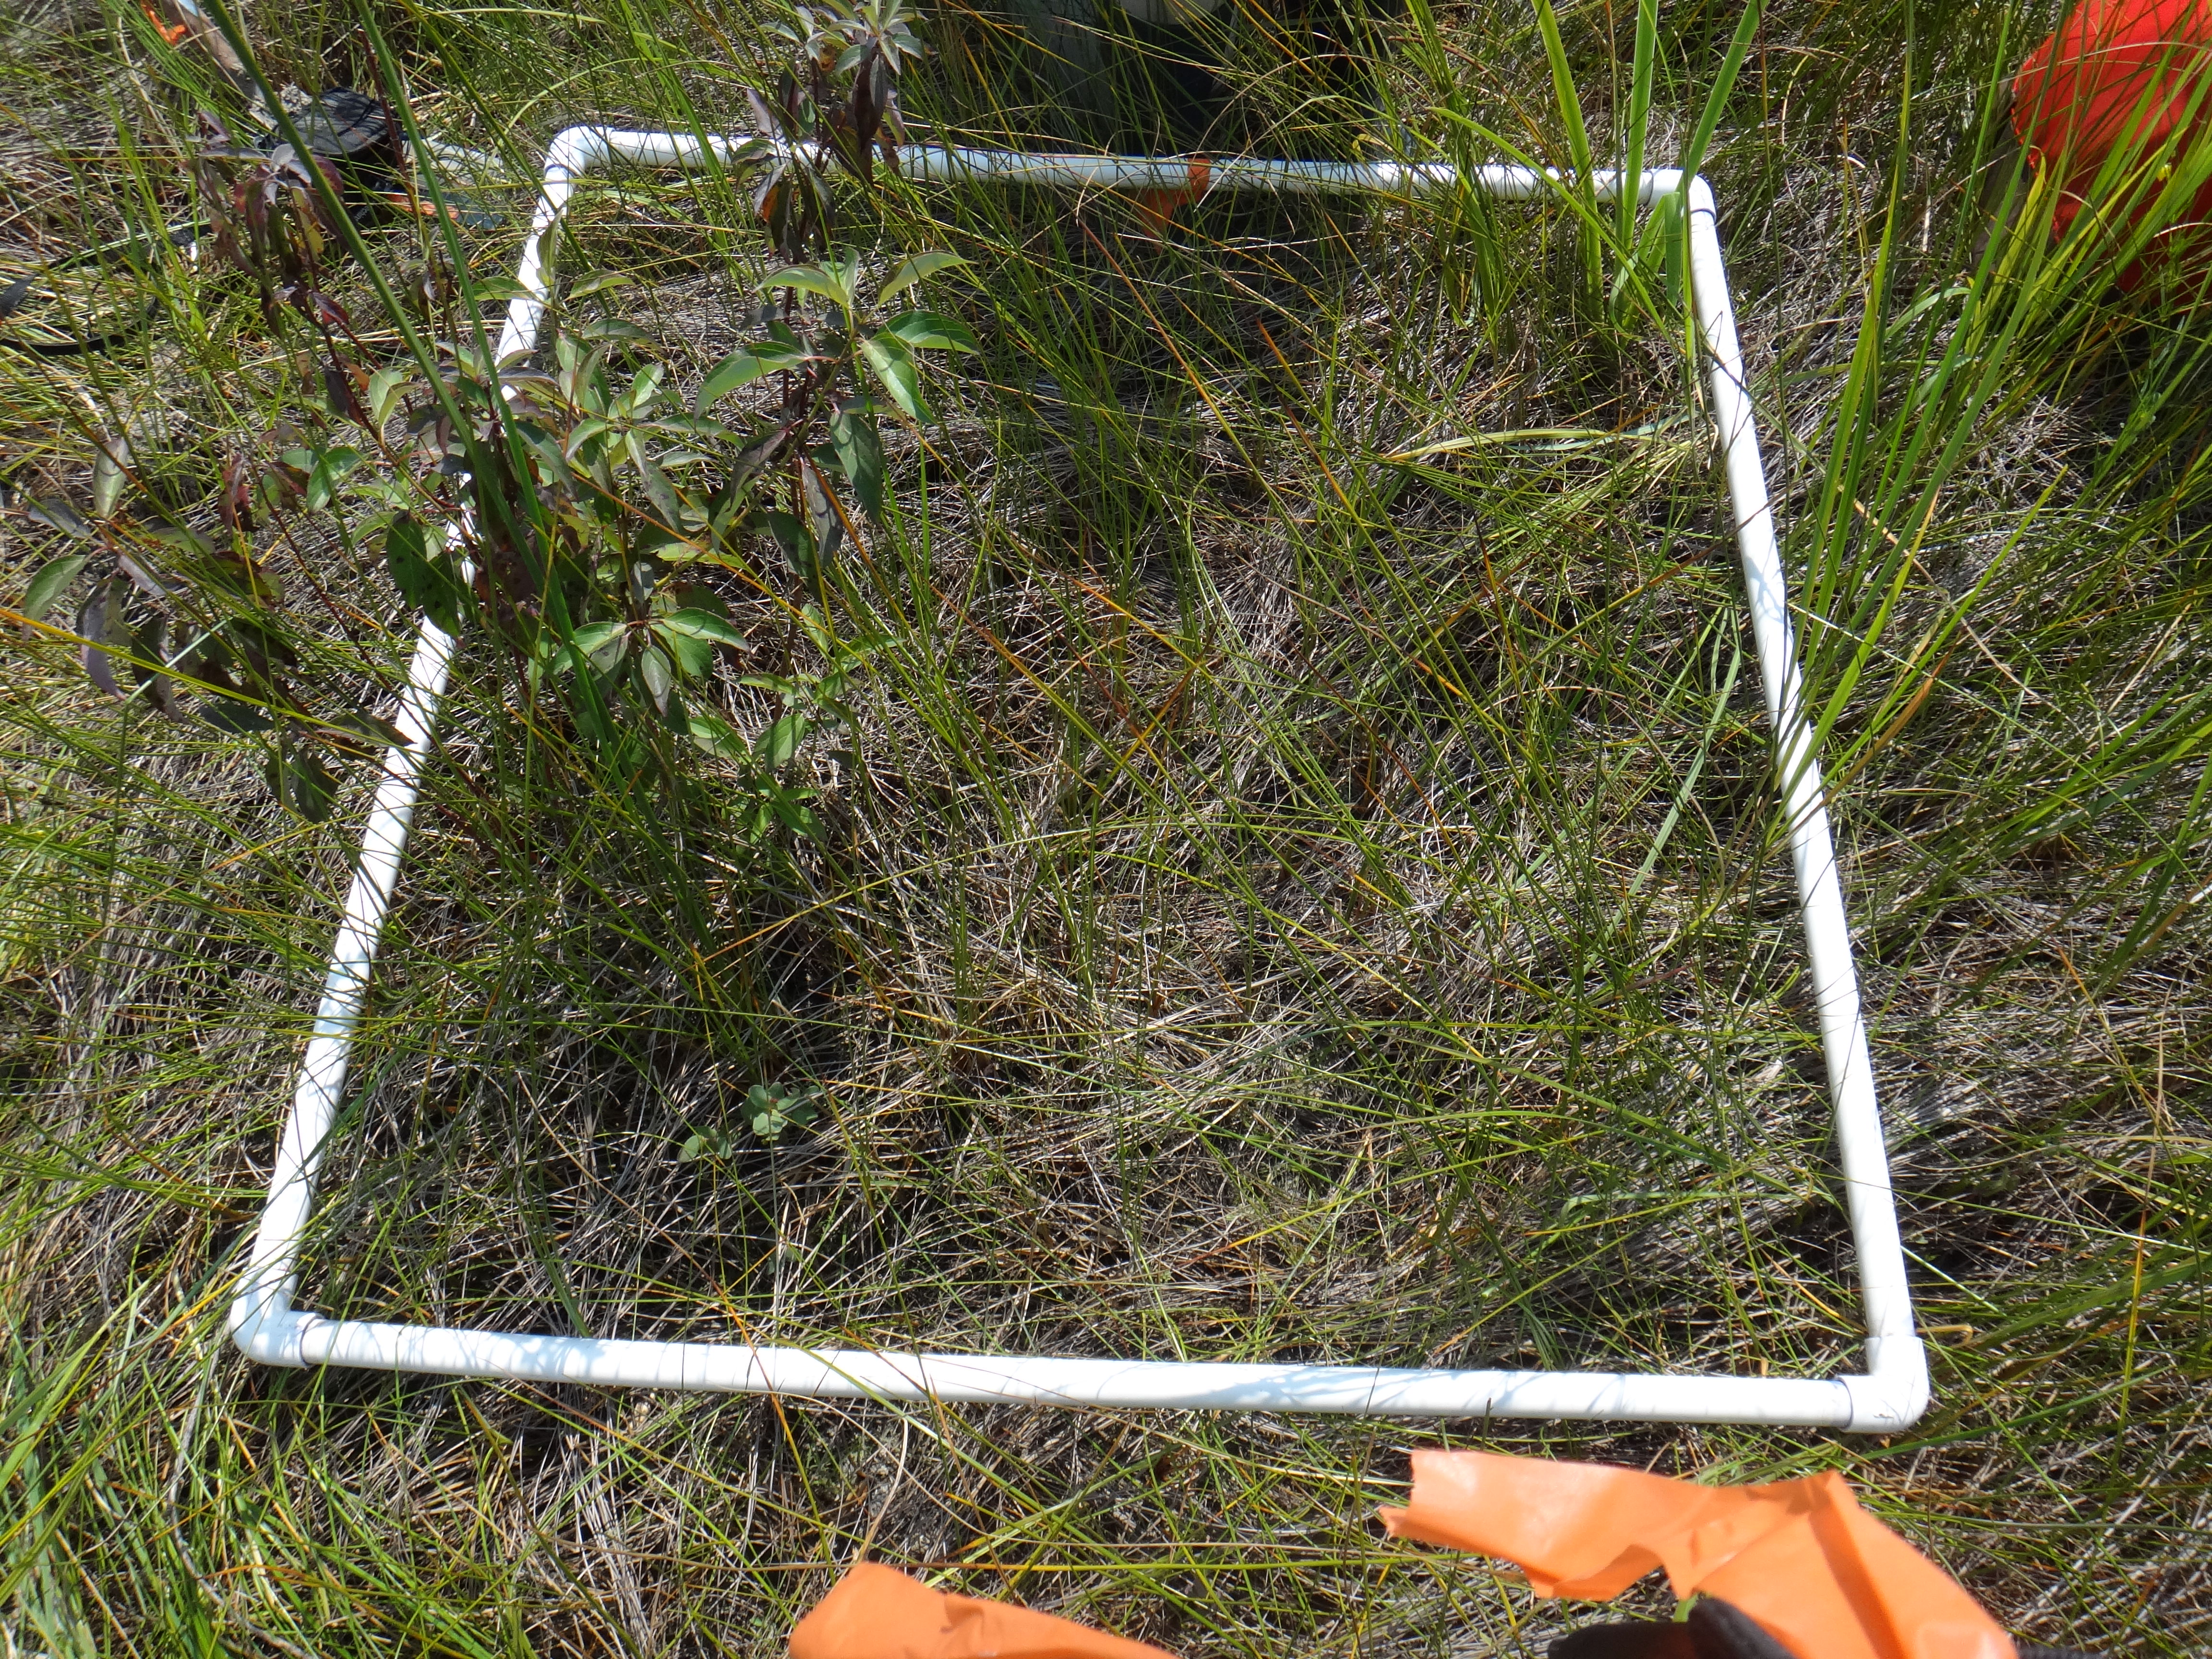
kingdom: Plantae
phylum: Tracheophyta
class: Liliopsida
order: Poales
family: Cyperaceae
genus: Cladium
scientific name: Cladium mariscoides
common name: Smooth sawgrass
